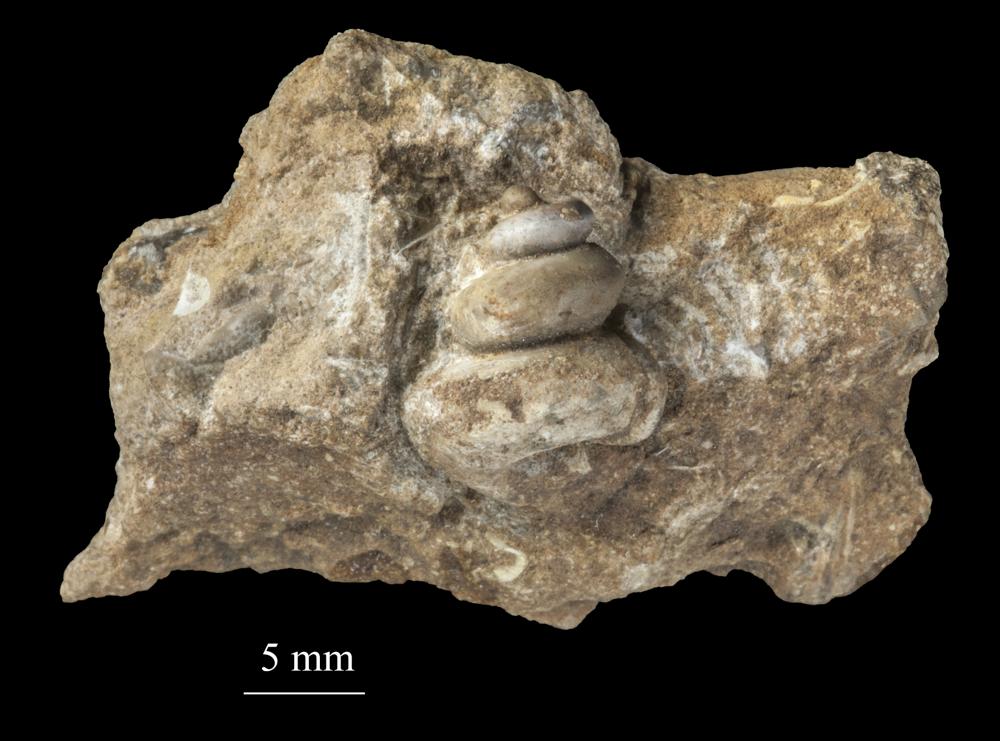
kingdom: Animalia
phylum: Mollusca
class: Gastropoda
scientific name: Gastropoda
